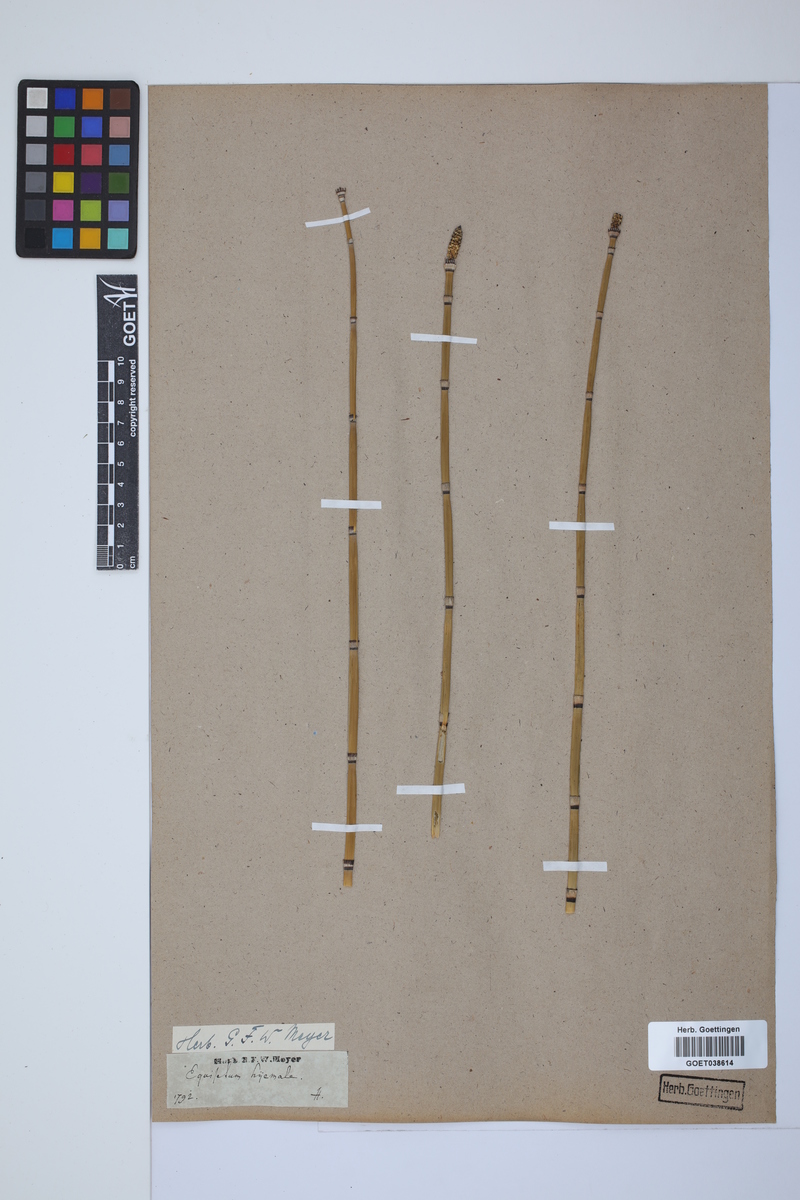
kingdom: Plantae
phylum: Tracheophyta
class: Polypodiopsida
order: Equisetales
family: Equisetaceae
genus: Equisetum
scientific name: Equisetum hyemale
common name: Rough horsetail
